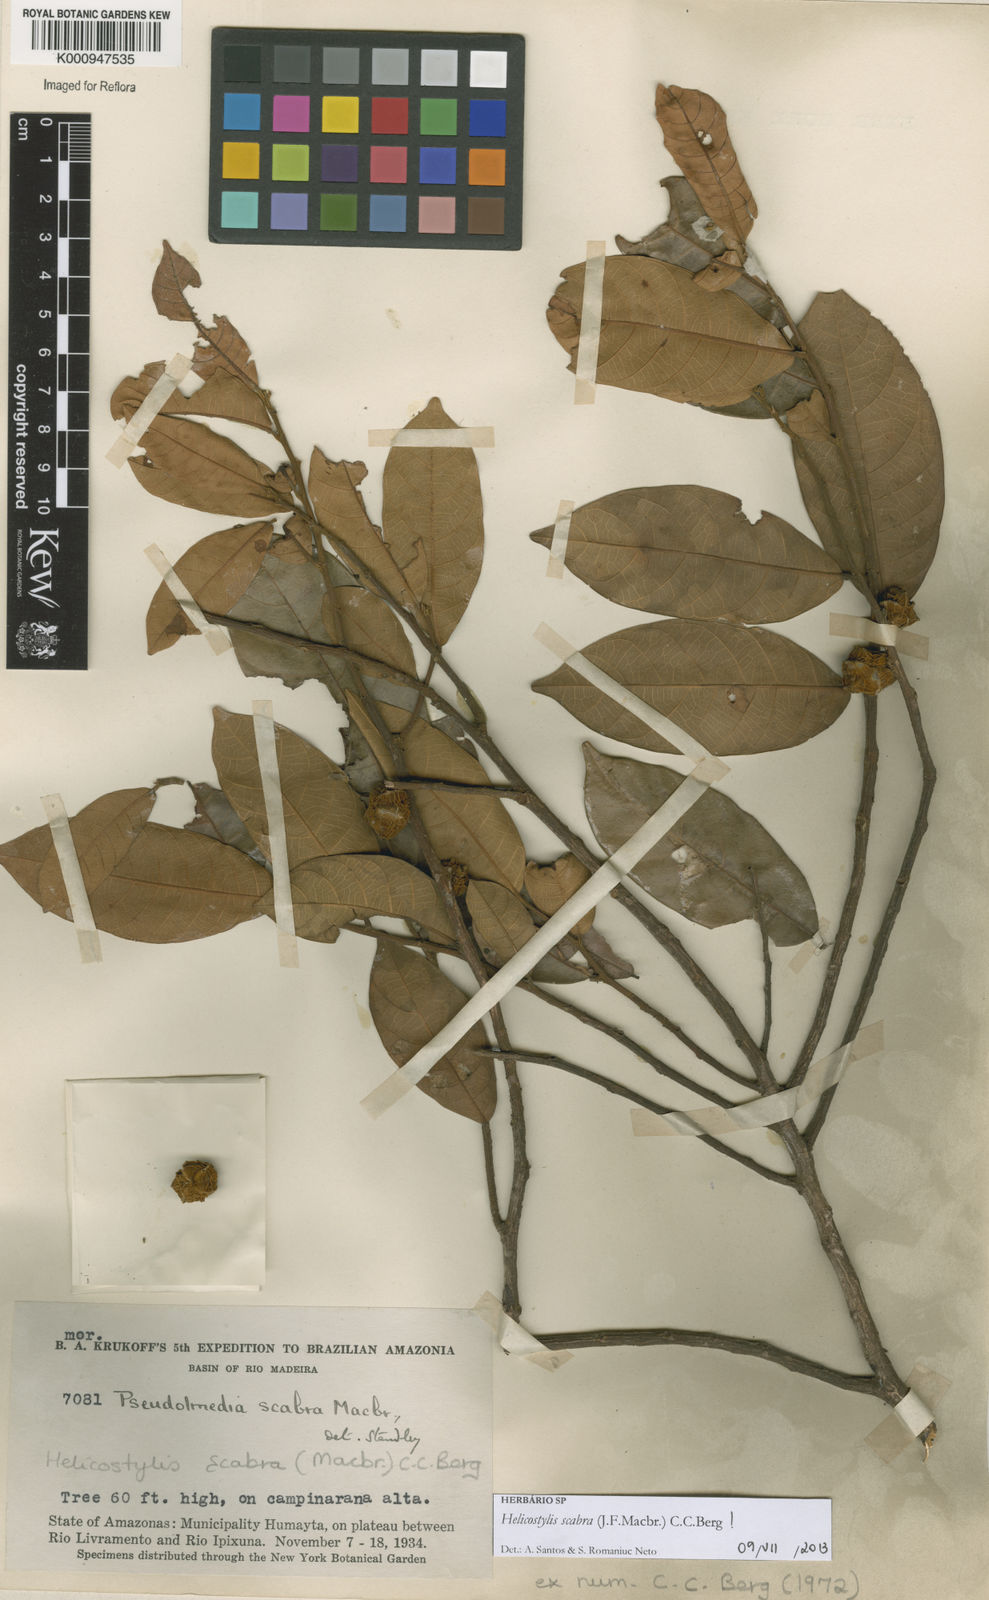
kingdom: Plantae
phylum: Tracheophyta
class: Magnoliopsida
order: Rosales
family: Moraceae
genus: Helicostylis
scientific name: Helicostylis scabra
